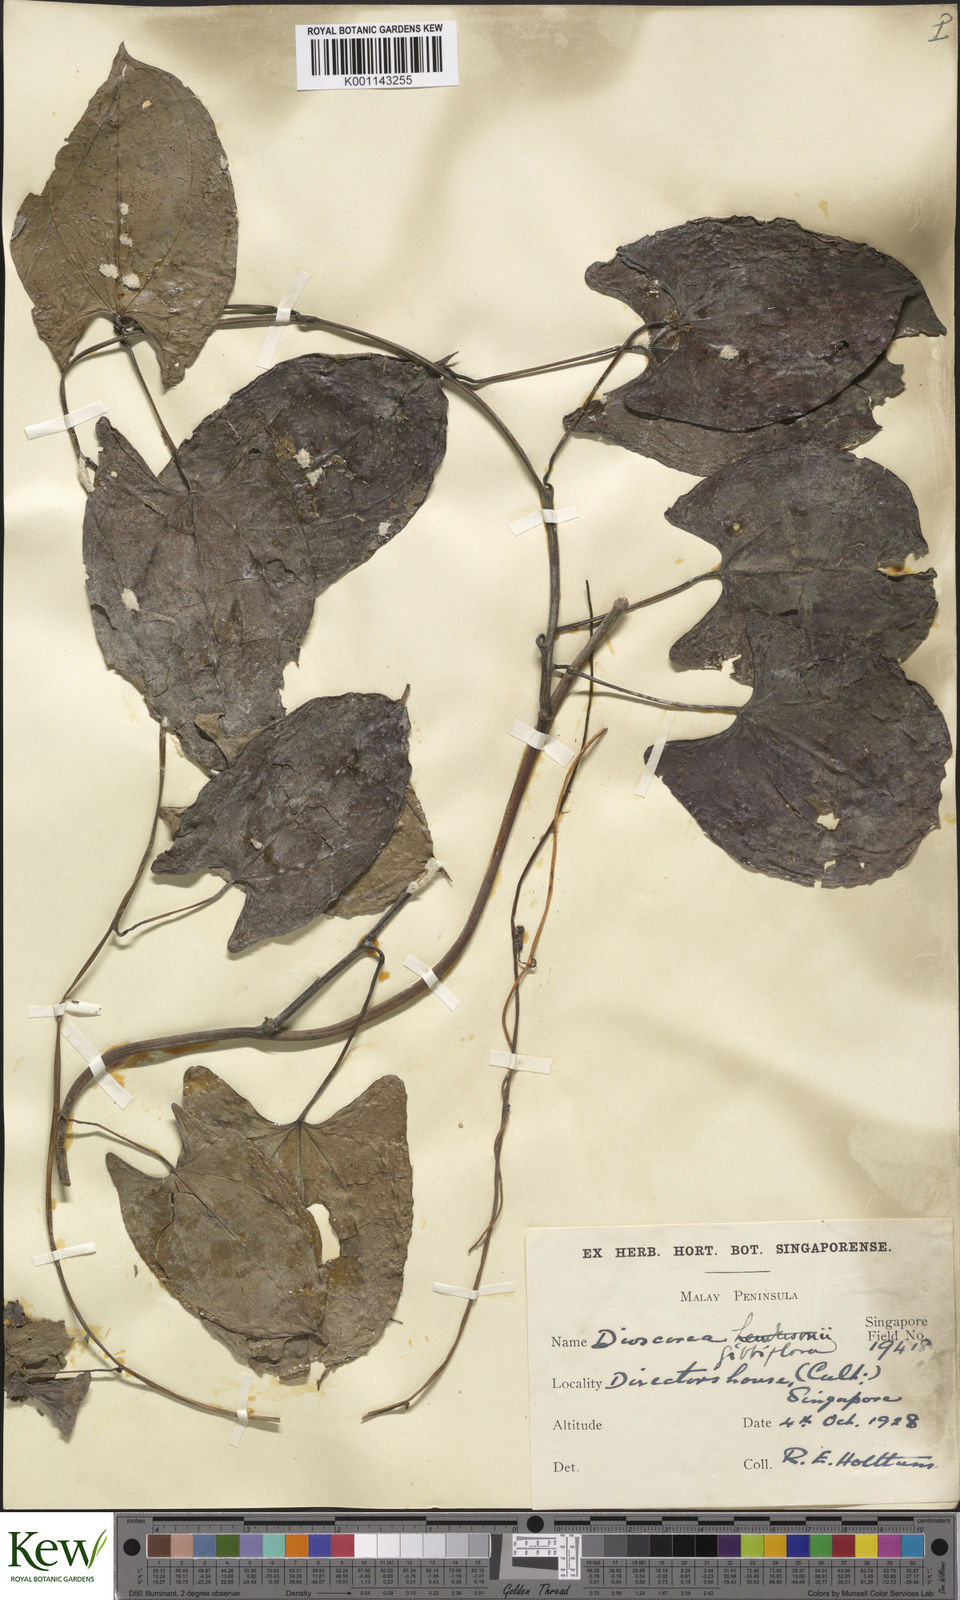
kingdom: Plantae
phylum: Tracheophyta
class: Liliopsida
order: Dioscoreales
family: Dioscoreaceae
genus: Dioscorea
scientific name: Dioscorea filiformis
